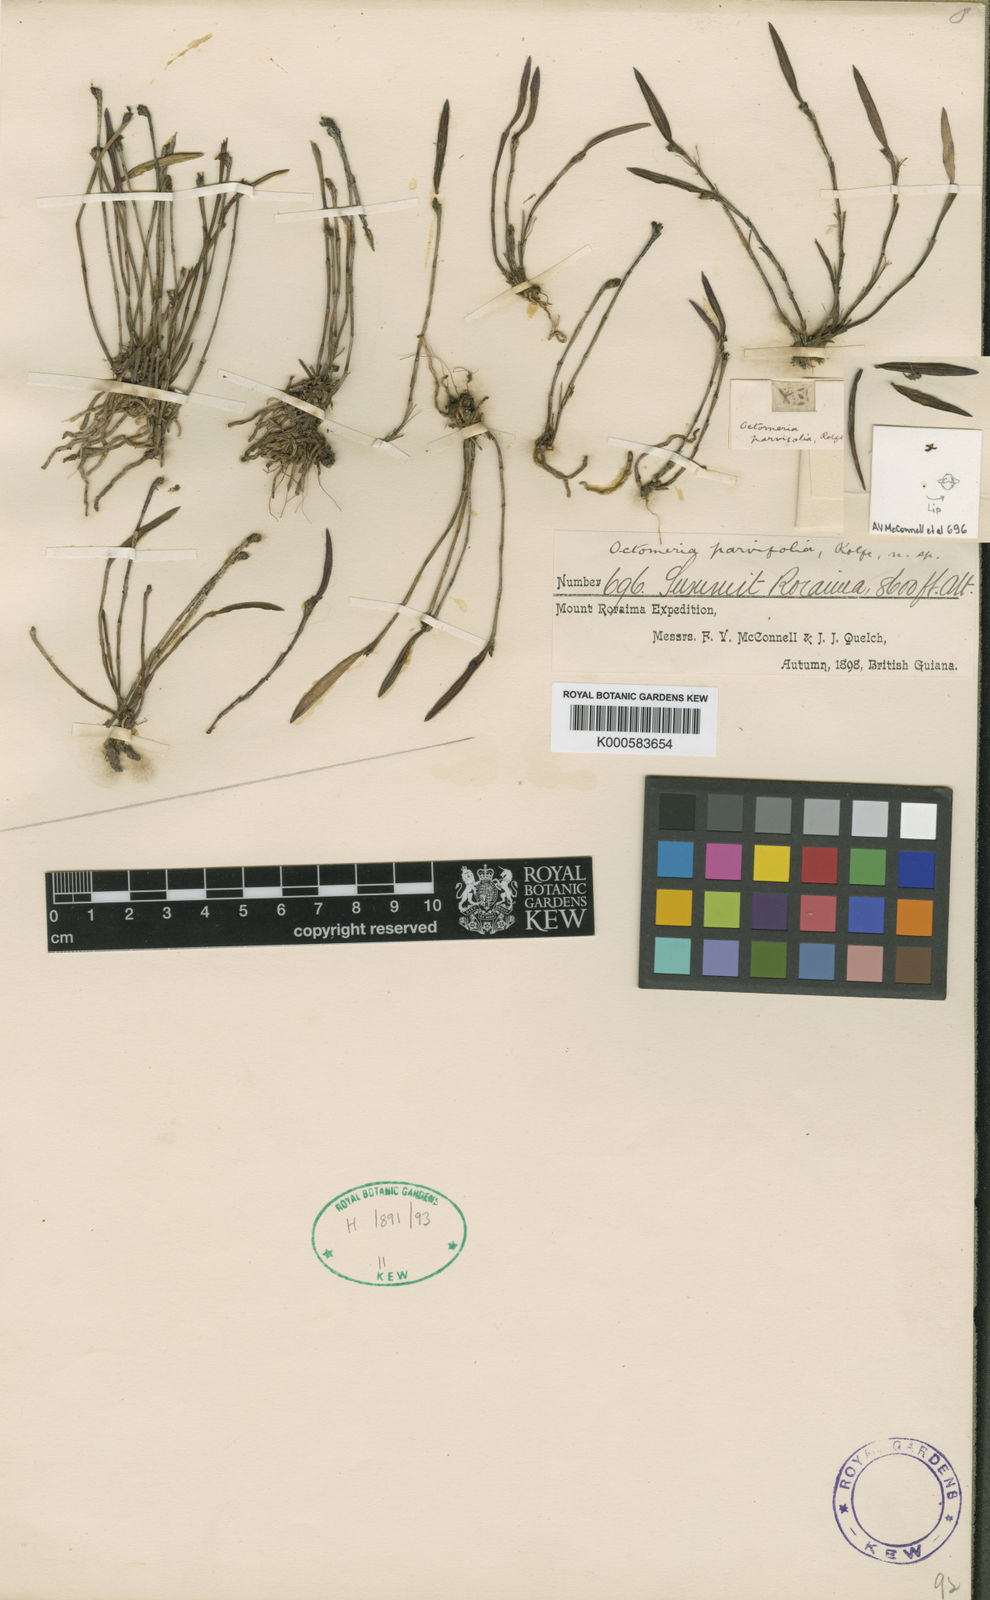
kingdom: Plantae
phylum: Tracheophyta
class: Liliopsida
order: Asparagales
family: Orchidaceae
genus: Octomeria
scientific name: Octomeria parvifolia
